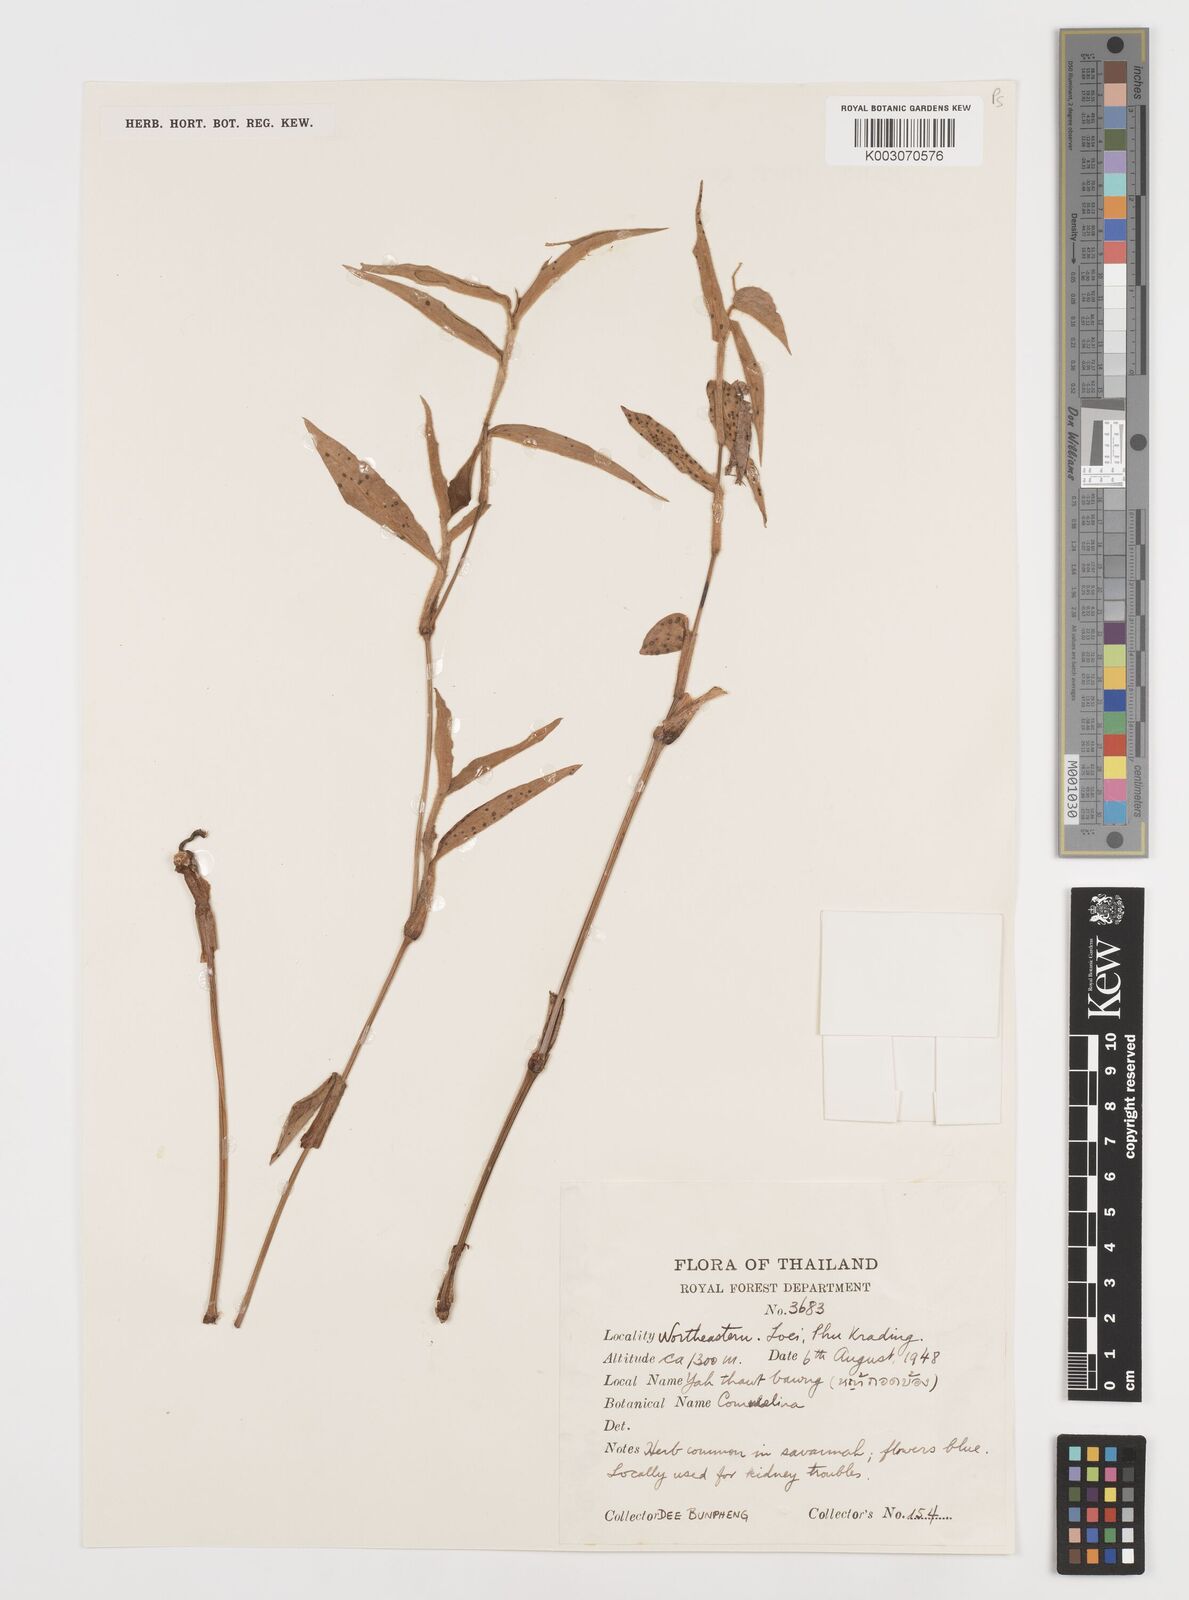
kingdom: Plantae
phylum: Tracheophyta
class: Liliopsida
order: Commelinales
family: Commelinaceae
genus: Commelina
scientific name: Commelina clavata
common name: Willow leaved dayflower
